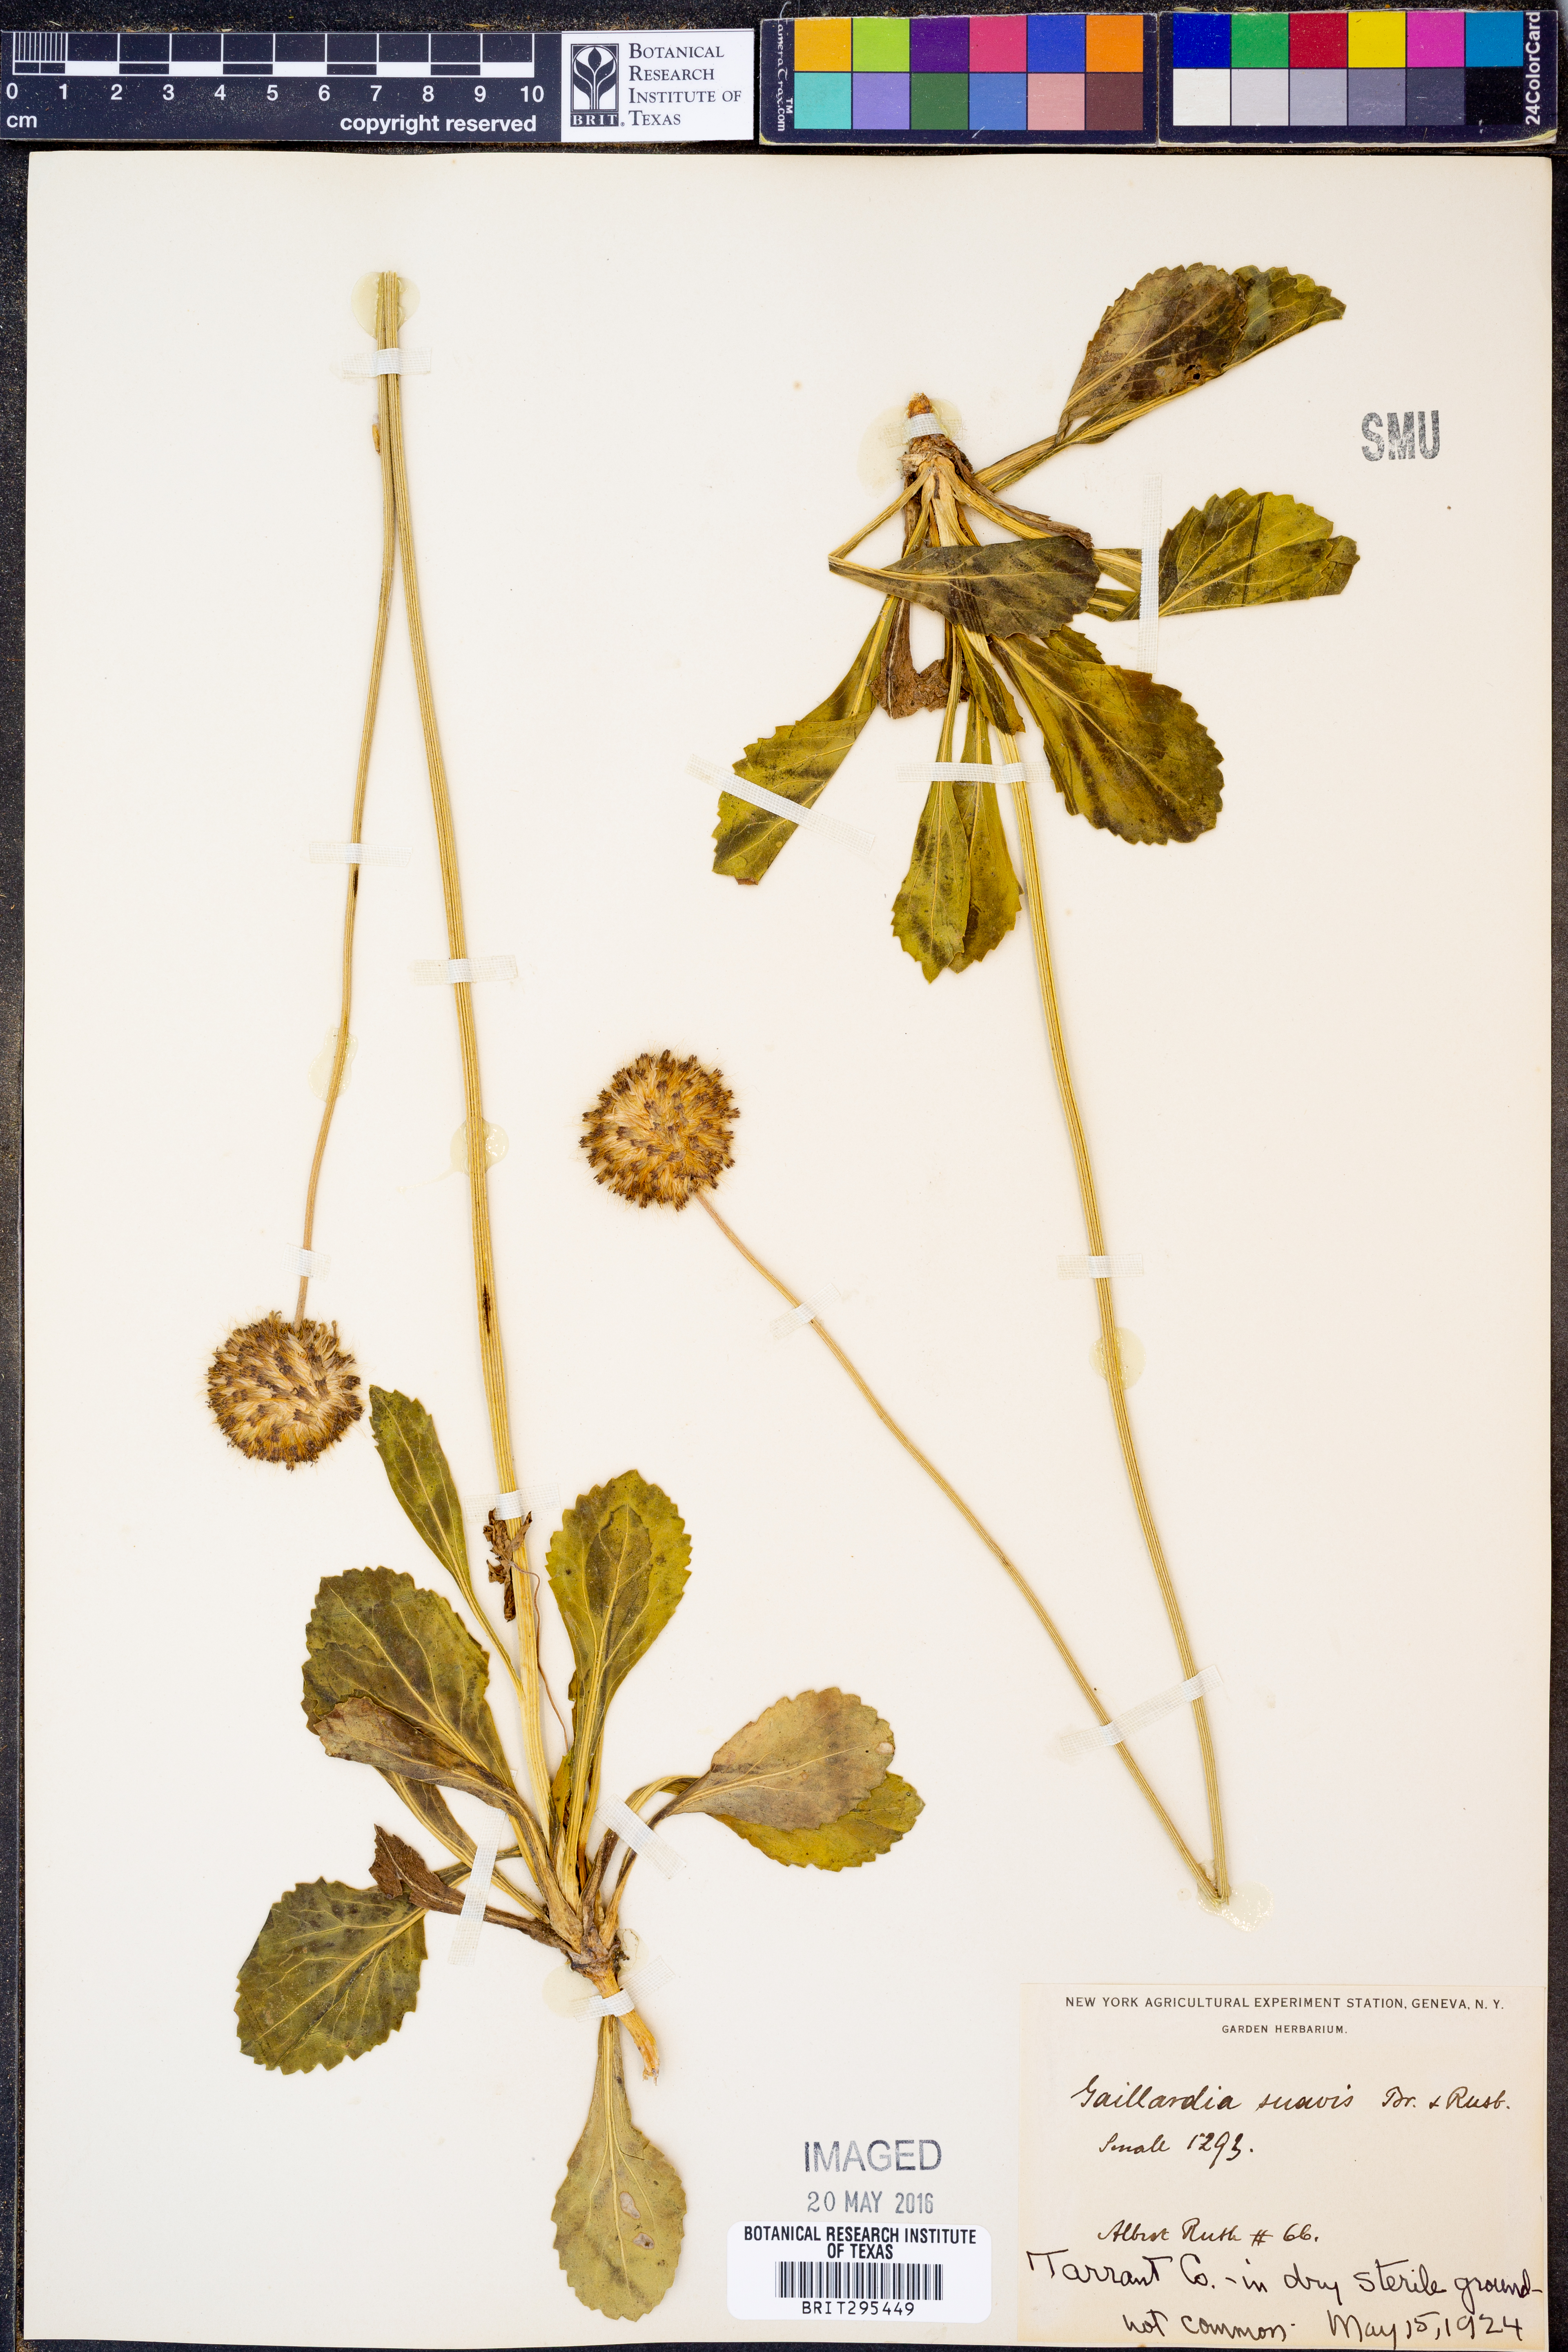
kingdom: Plantae
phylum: Tracheophyta
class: Magnoliopsida
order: Asterales
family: Asteraceae
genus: Gaillardia
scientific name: Gaillardia suavis
